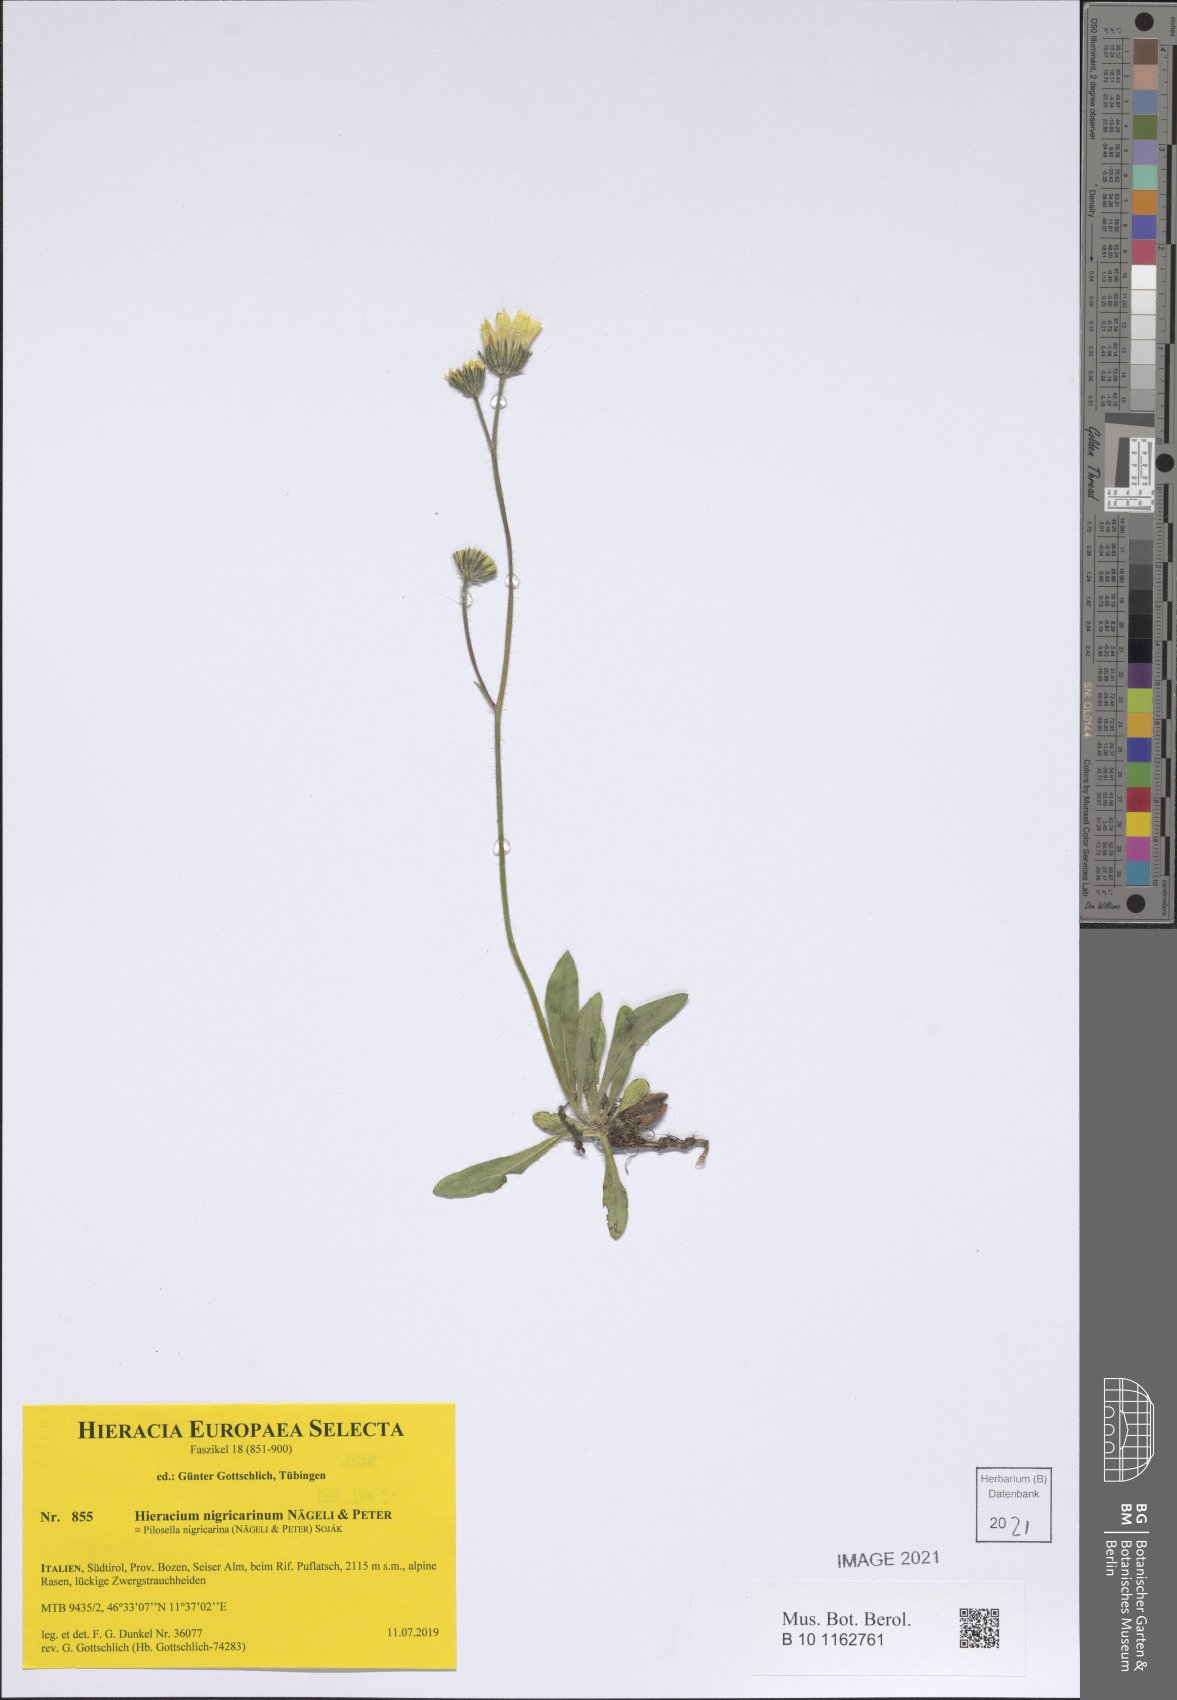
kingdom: Plantae
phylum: Tracheophyta
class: Magnoliopsida
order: Asterales
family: Asteraceae
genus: Pilosella
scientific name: Pilosella lathraea
